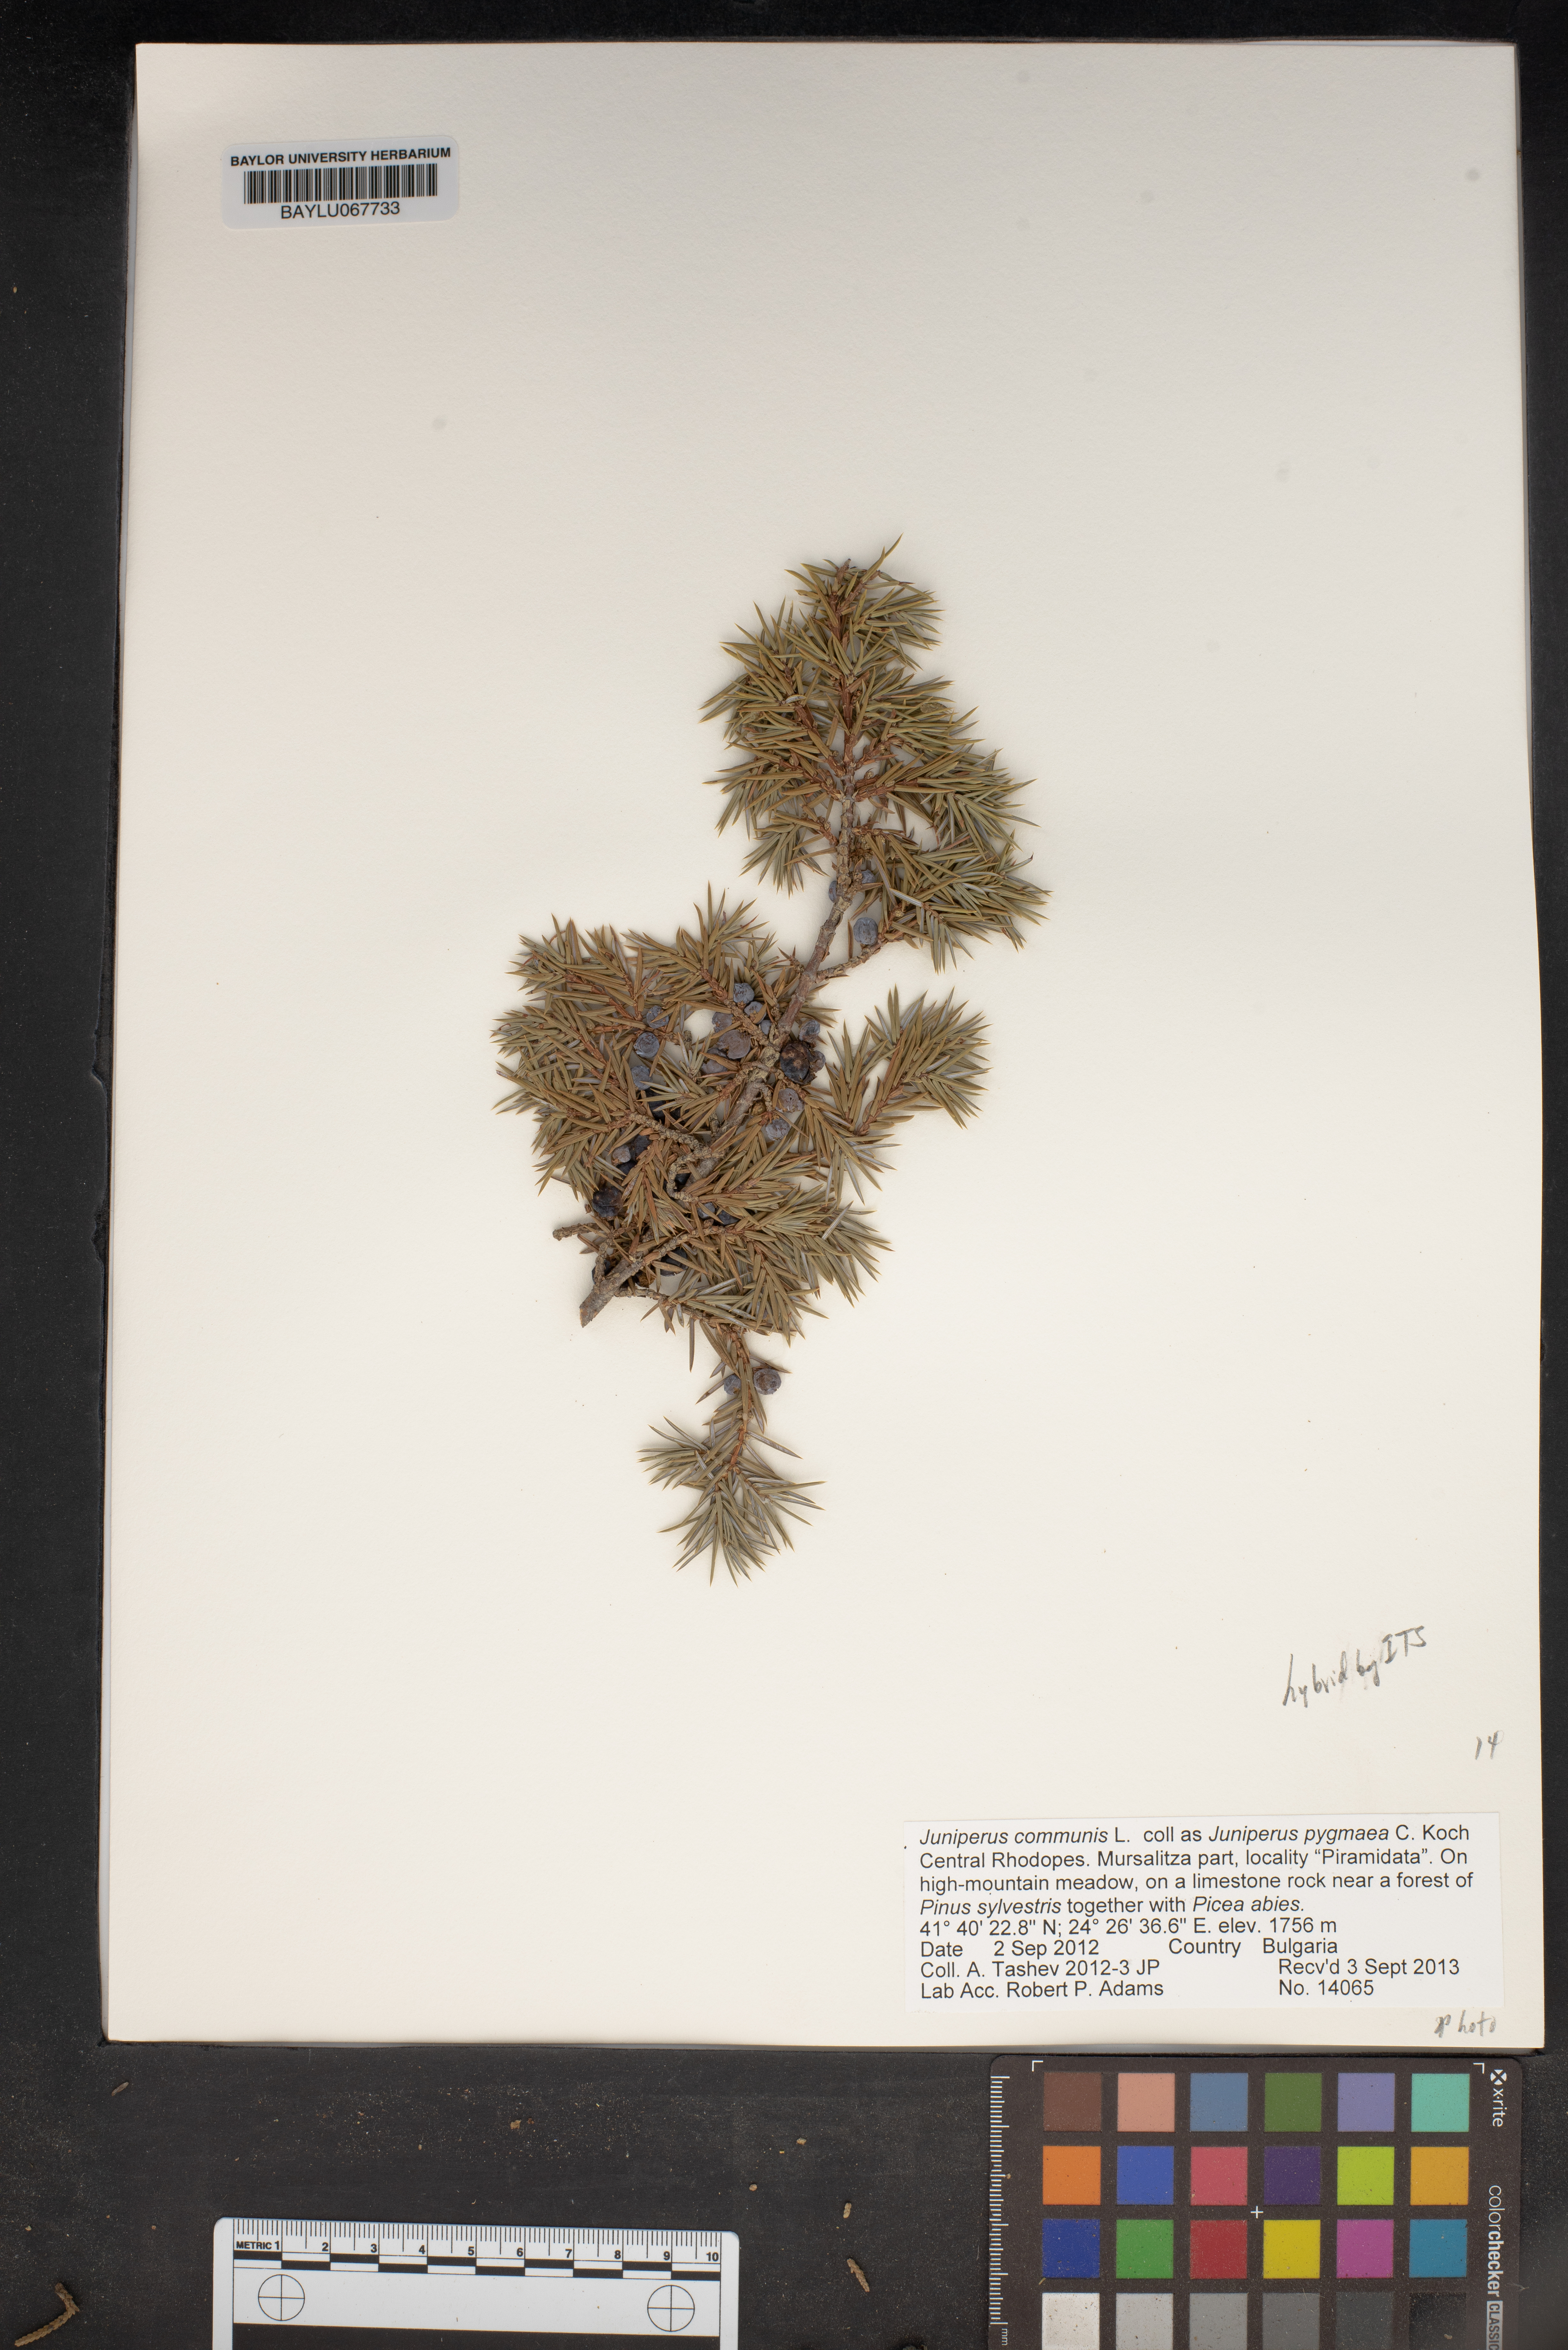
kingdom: Plantae
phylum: Tracheophyta
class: Pinopsida
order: Pinales
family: Cupressaceae
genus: Juniperus
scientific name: Juniperus communis
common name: Common juniper
